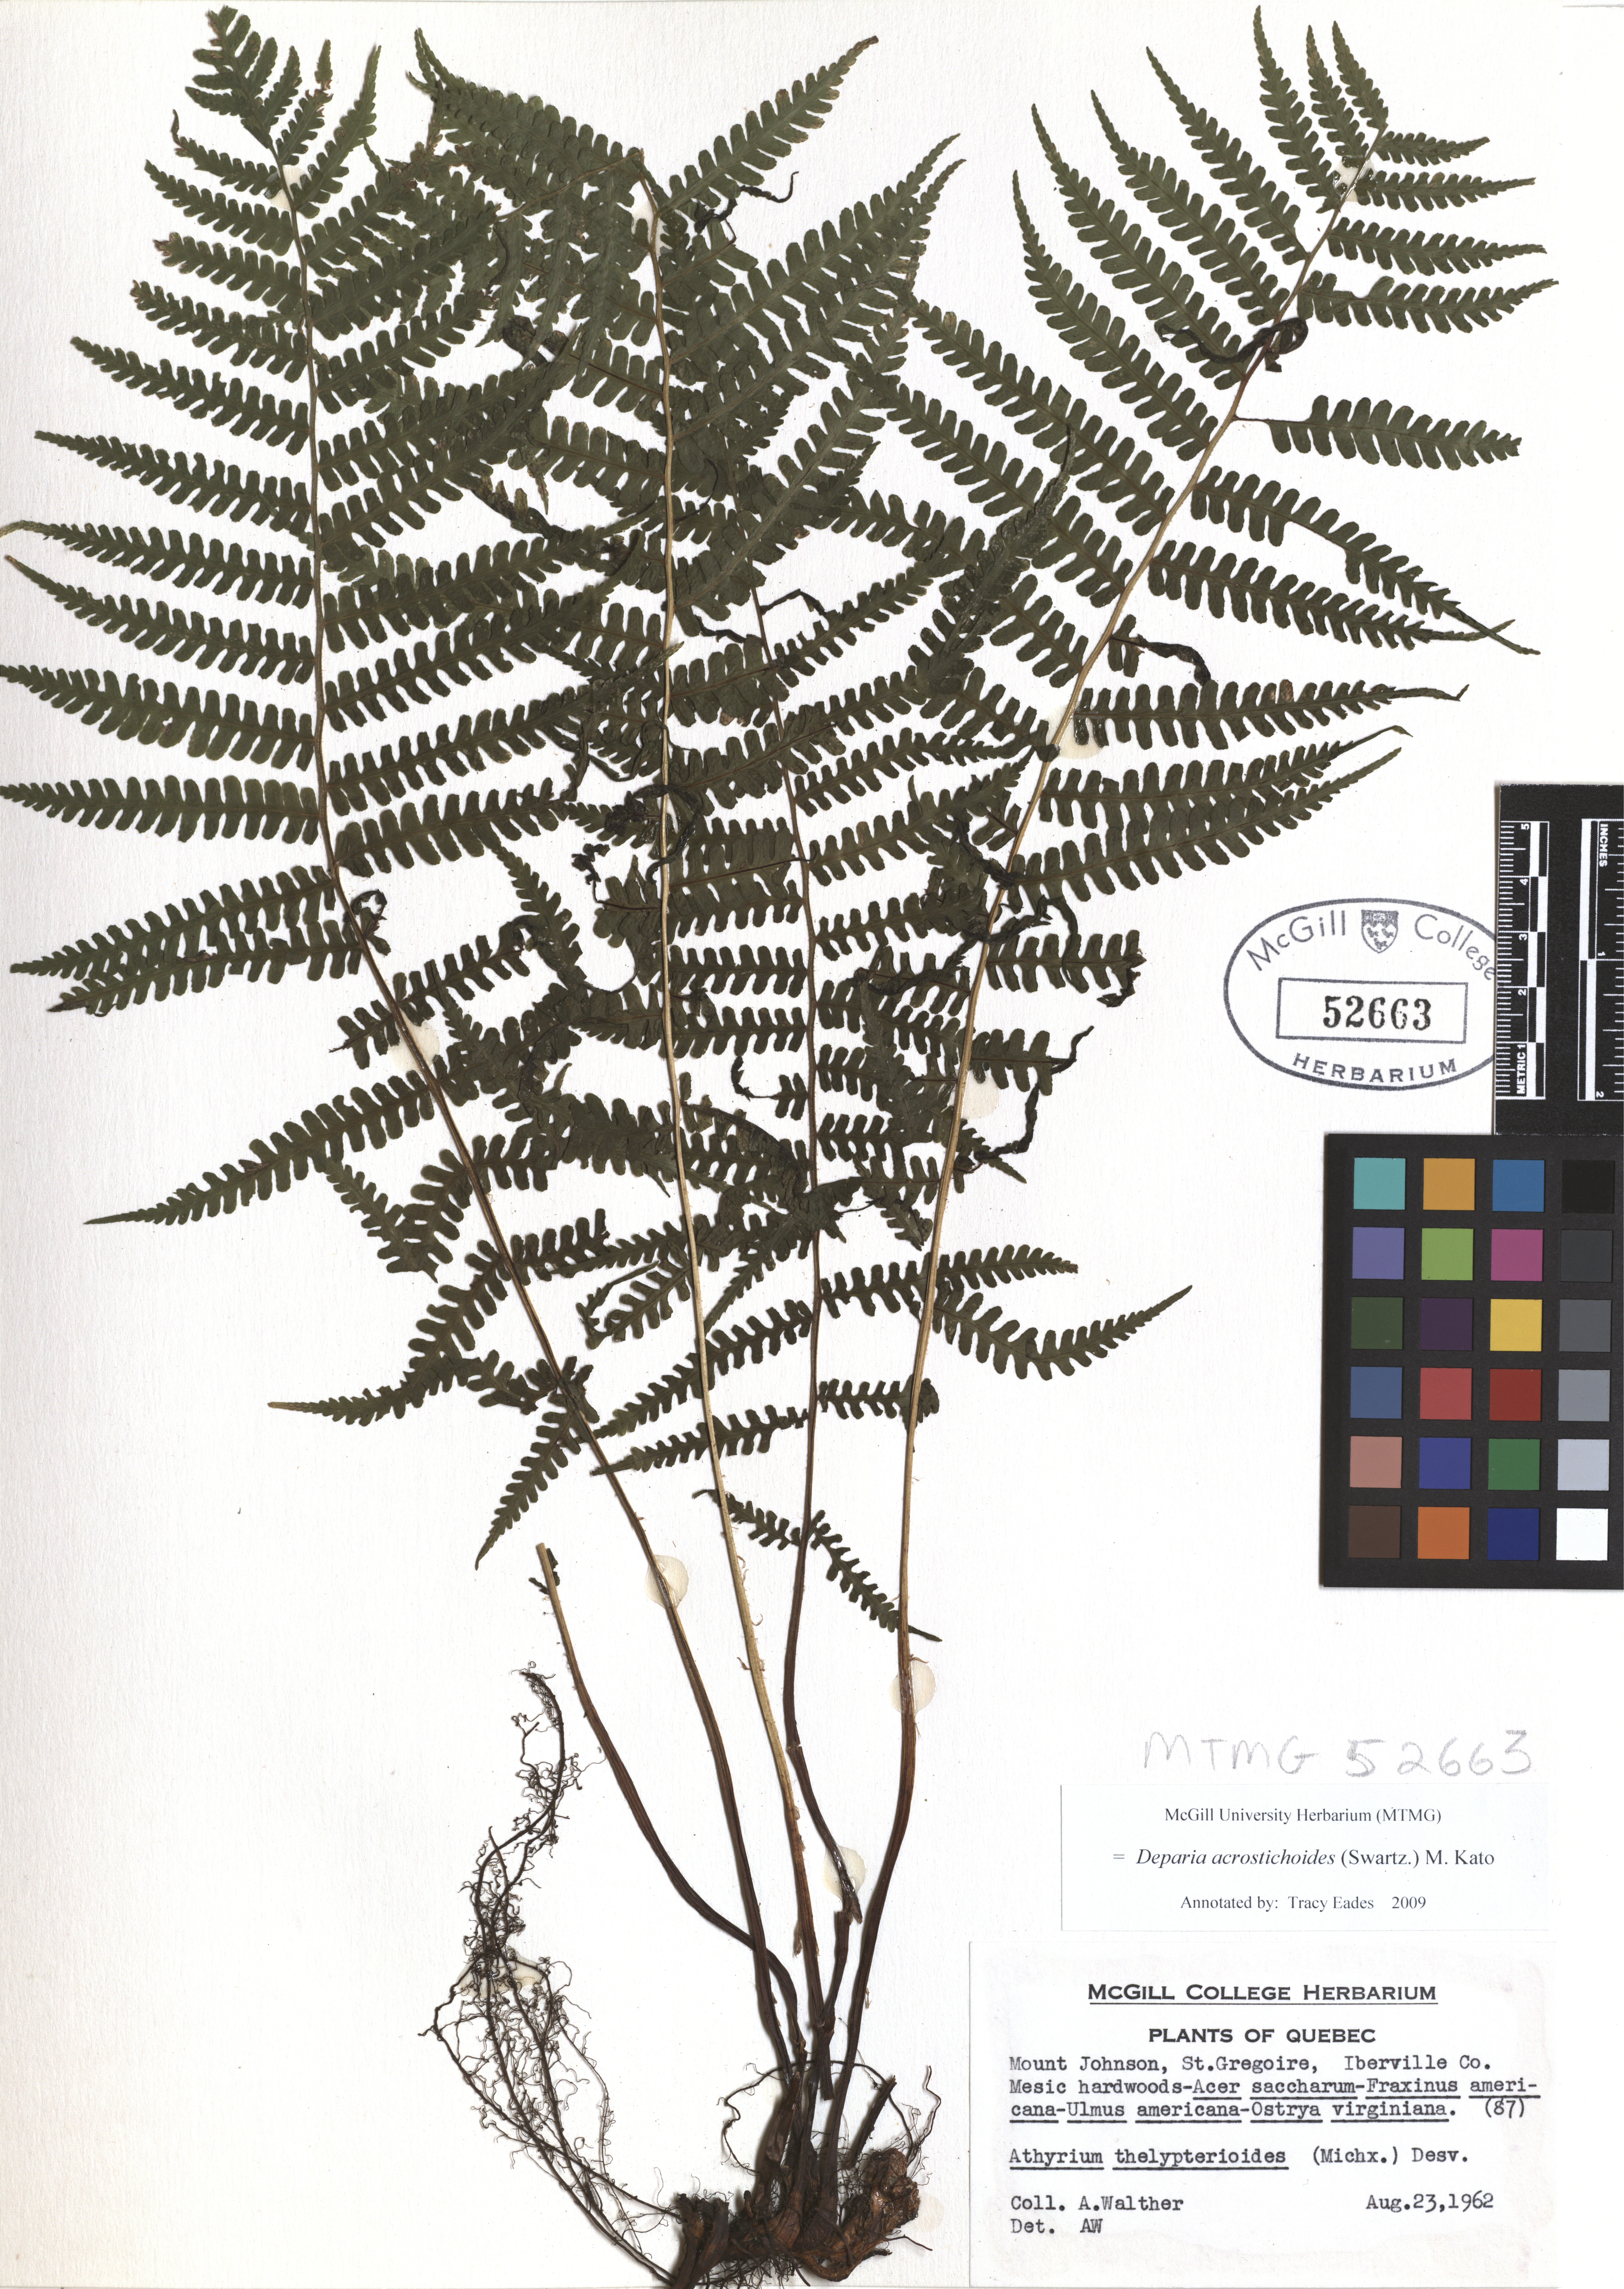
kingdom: Plantae
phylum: Tracheophyta
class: Polypodiopsida
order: Polypodiales
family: Athyriaceae
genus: Deparia
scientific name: Deparia acrostichoides
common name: Silver false spleenwort
